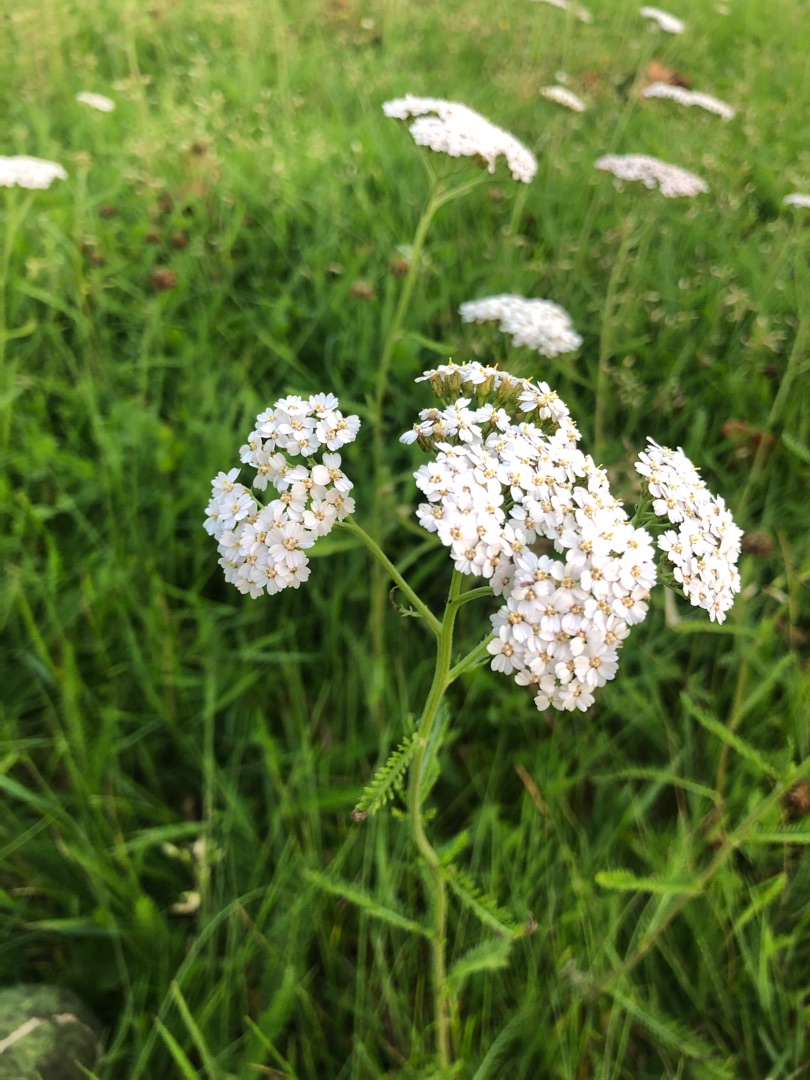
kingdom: Plantae
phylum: Tracheophyta
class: Magnoliopsida
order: Asterales
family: Asteraceae
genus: Achillea
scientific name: Achillea millefolium
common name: Almindelig røllike
